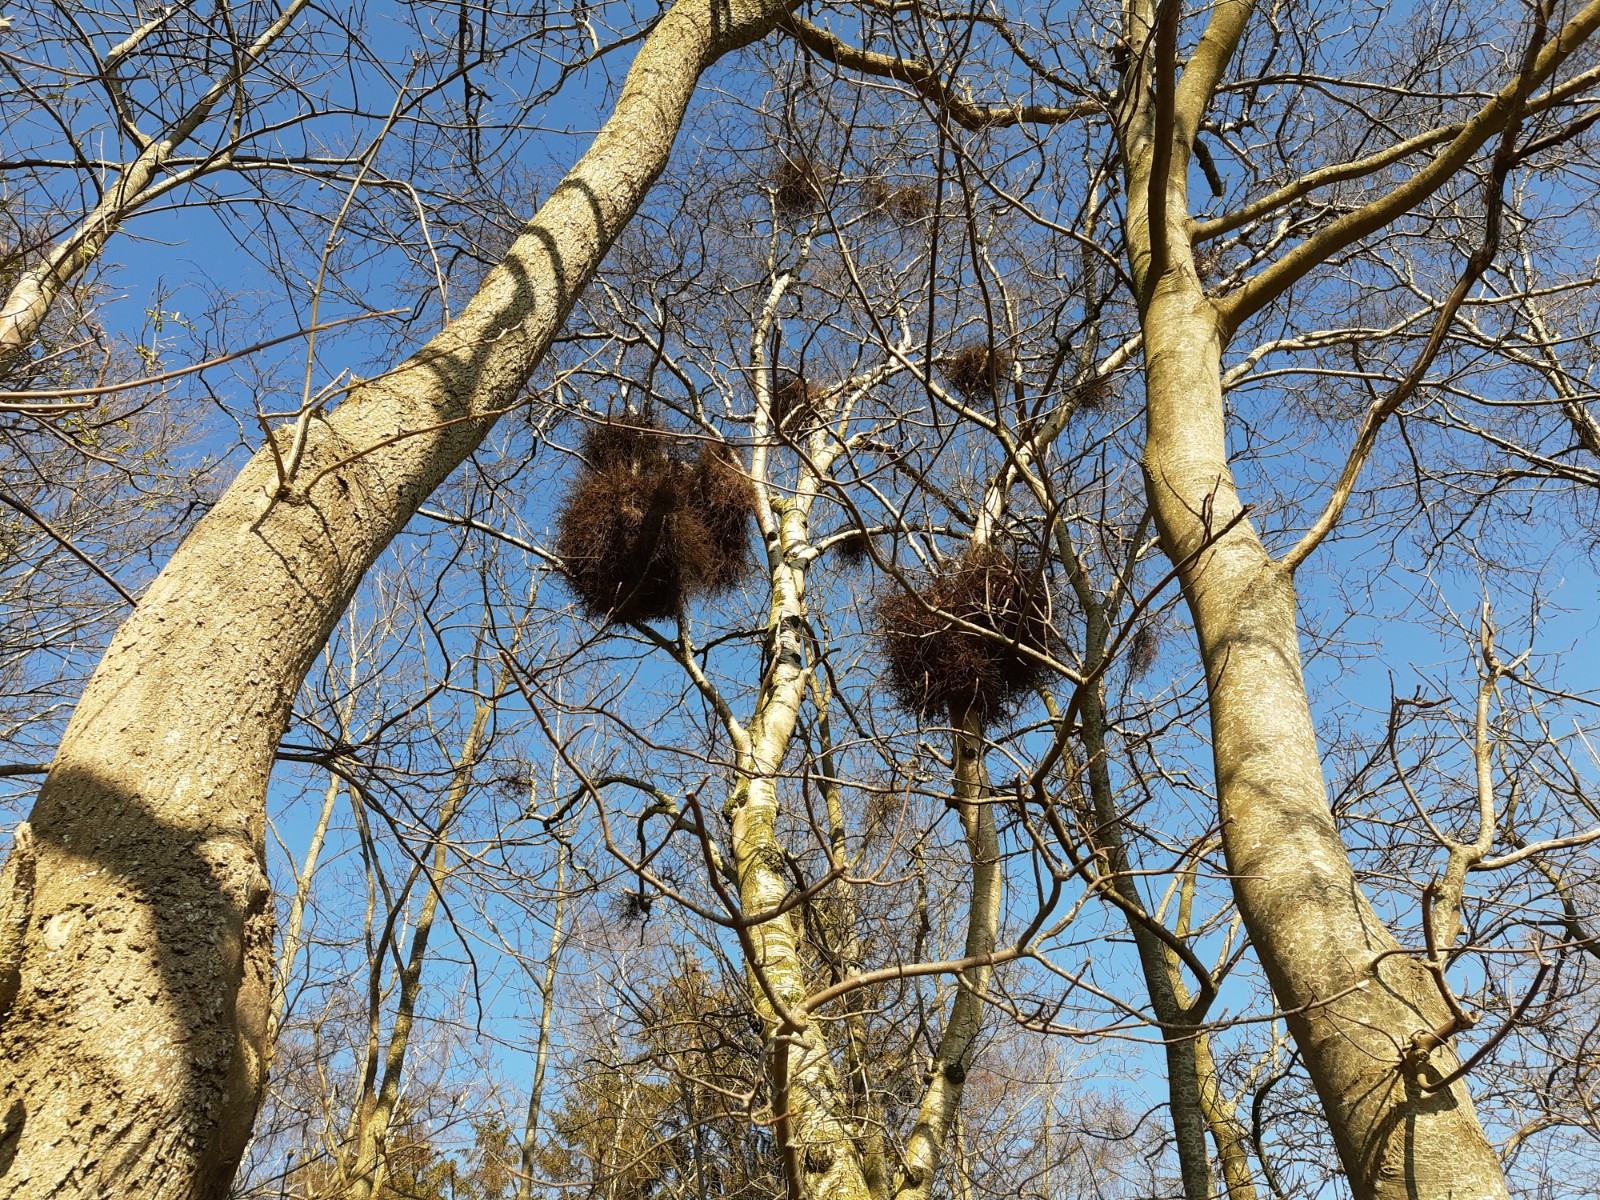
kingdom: Fungi
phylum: Ascomycota
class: Taphrinomycetes
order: Taphrinales
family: Taphrinaceae
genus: Taphrina
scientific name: Taphrina betulina
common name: hekse-sækdug
